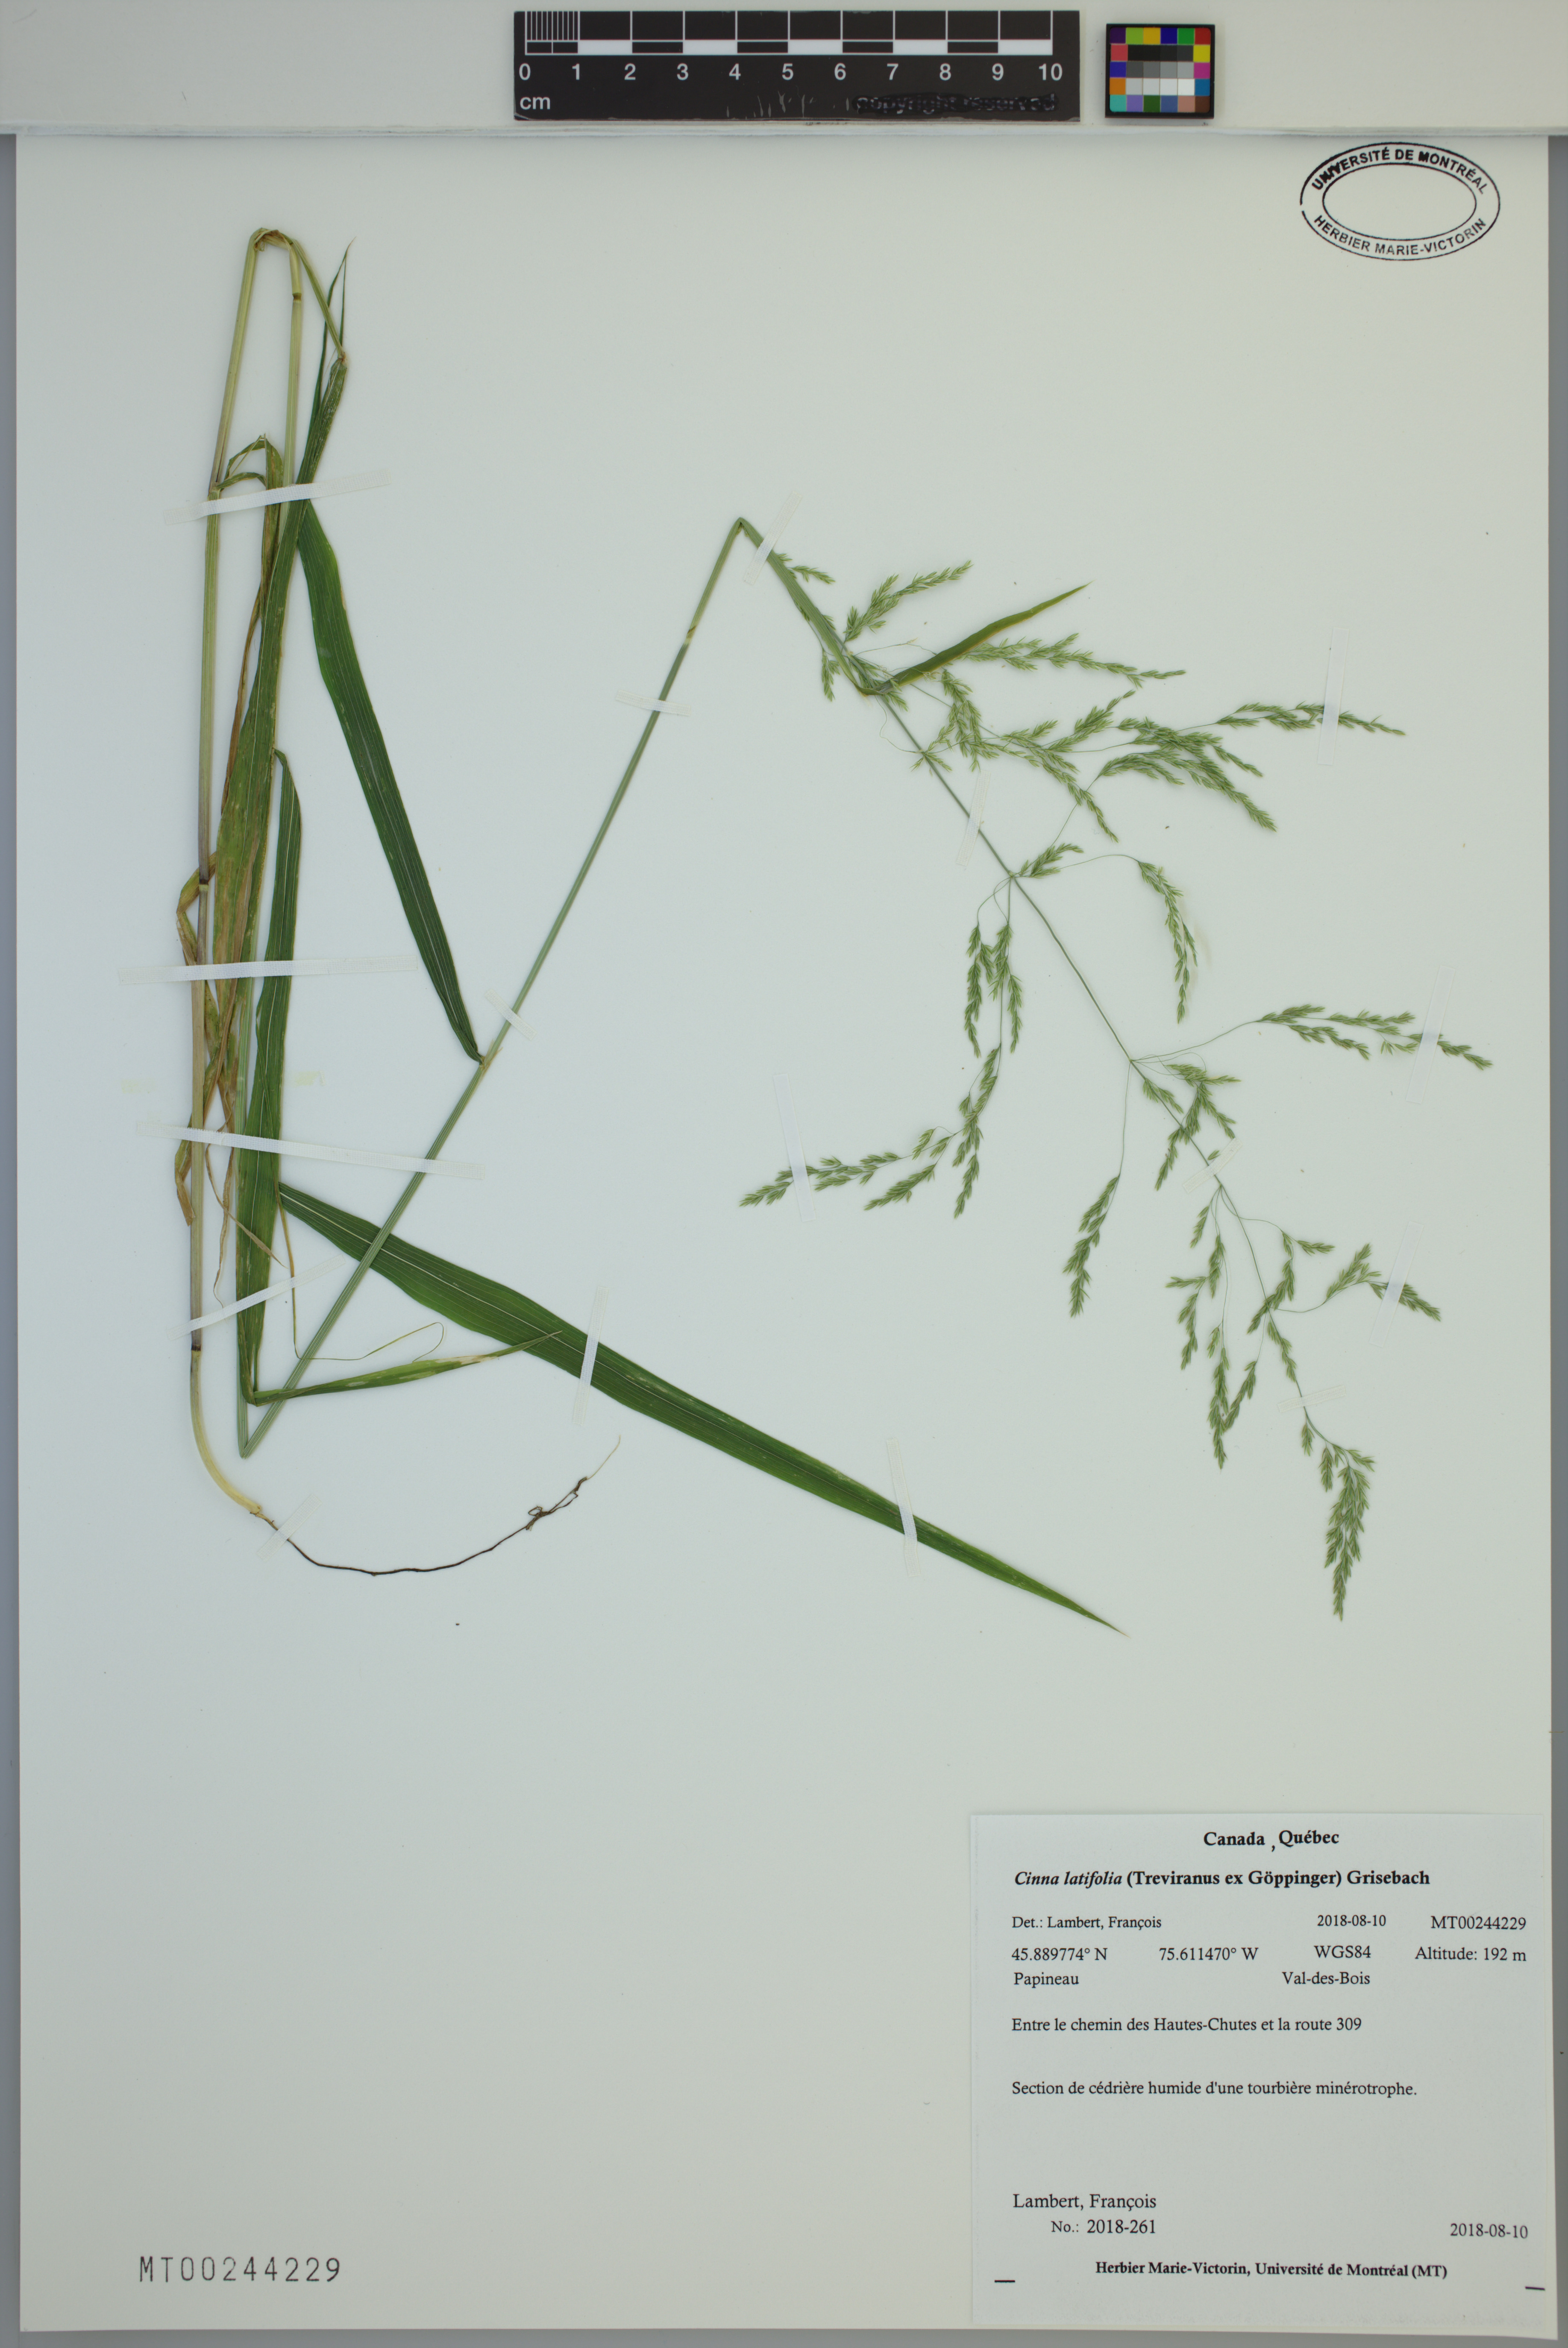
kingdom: Plantae
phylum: Tracheophyta
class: Liliopsida
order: Poales
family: Poaceae
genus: Cinna
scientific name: Cinna latifolia
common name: Drooping woodreed
